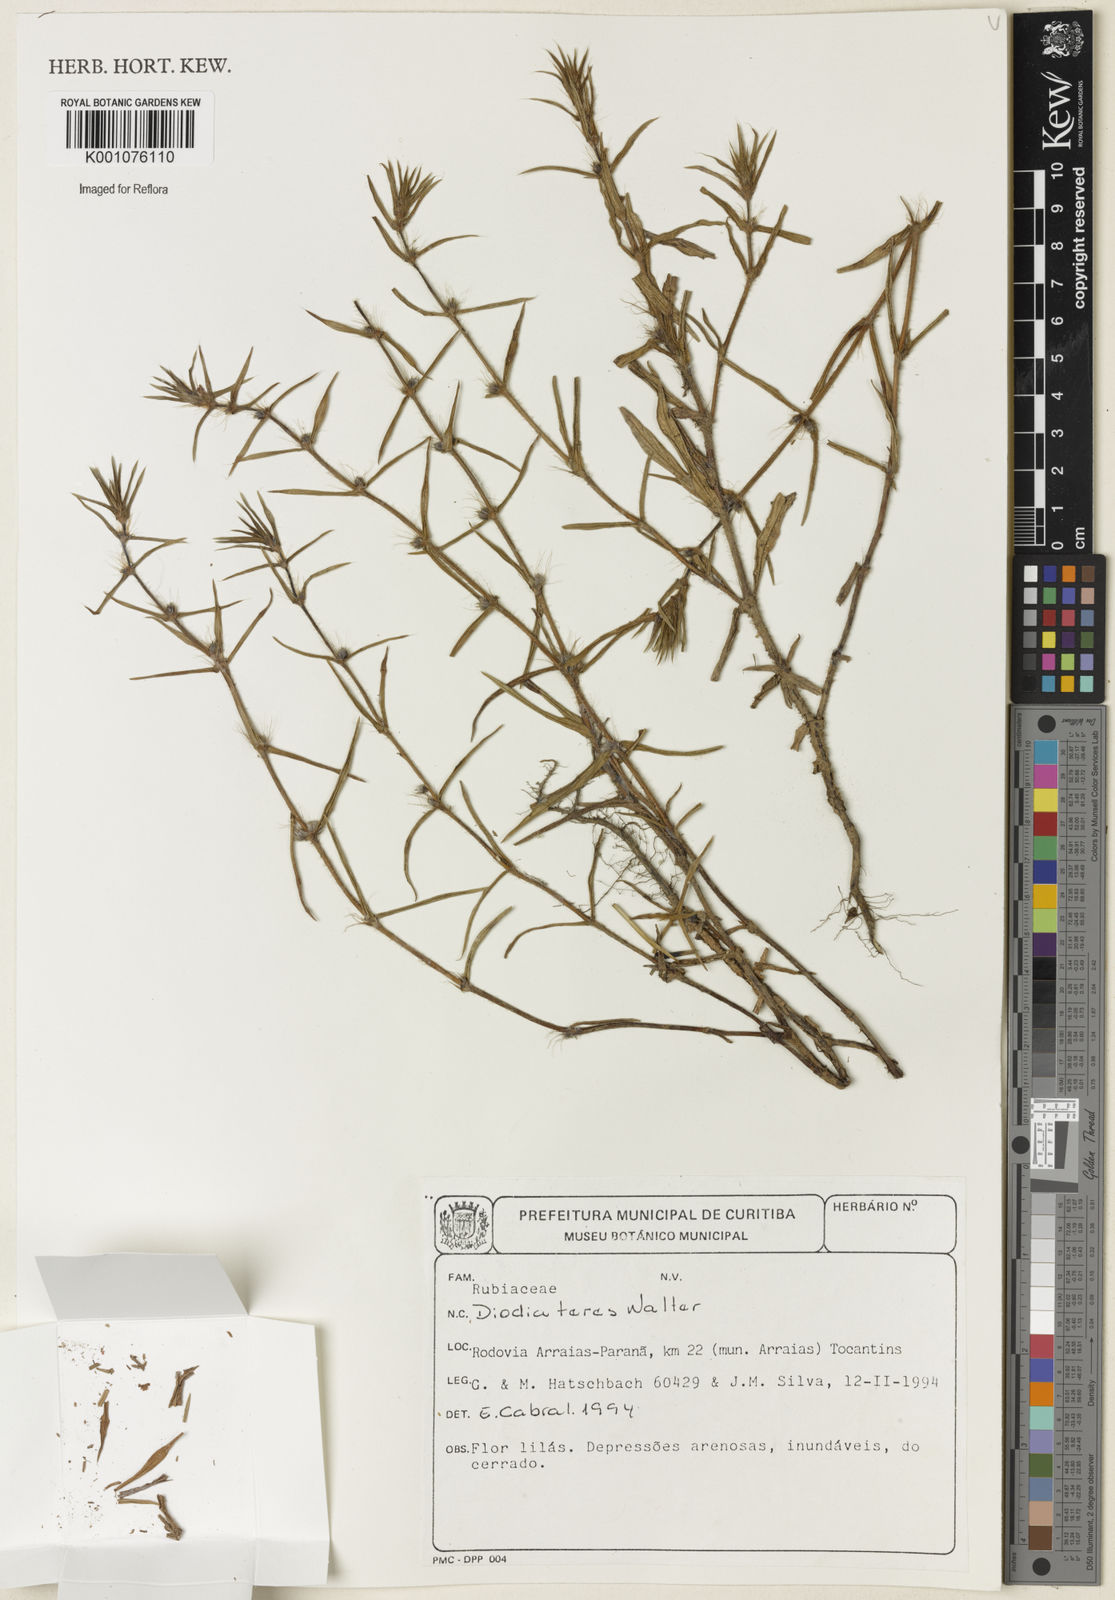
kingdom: Plantae
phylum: Tracheophyta
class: Magnoliopsida
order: Gentianales
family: Rubiaceae
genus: Hexasepalum
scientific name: Hexasepalum teres
